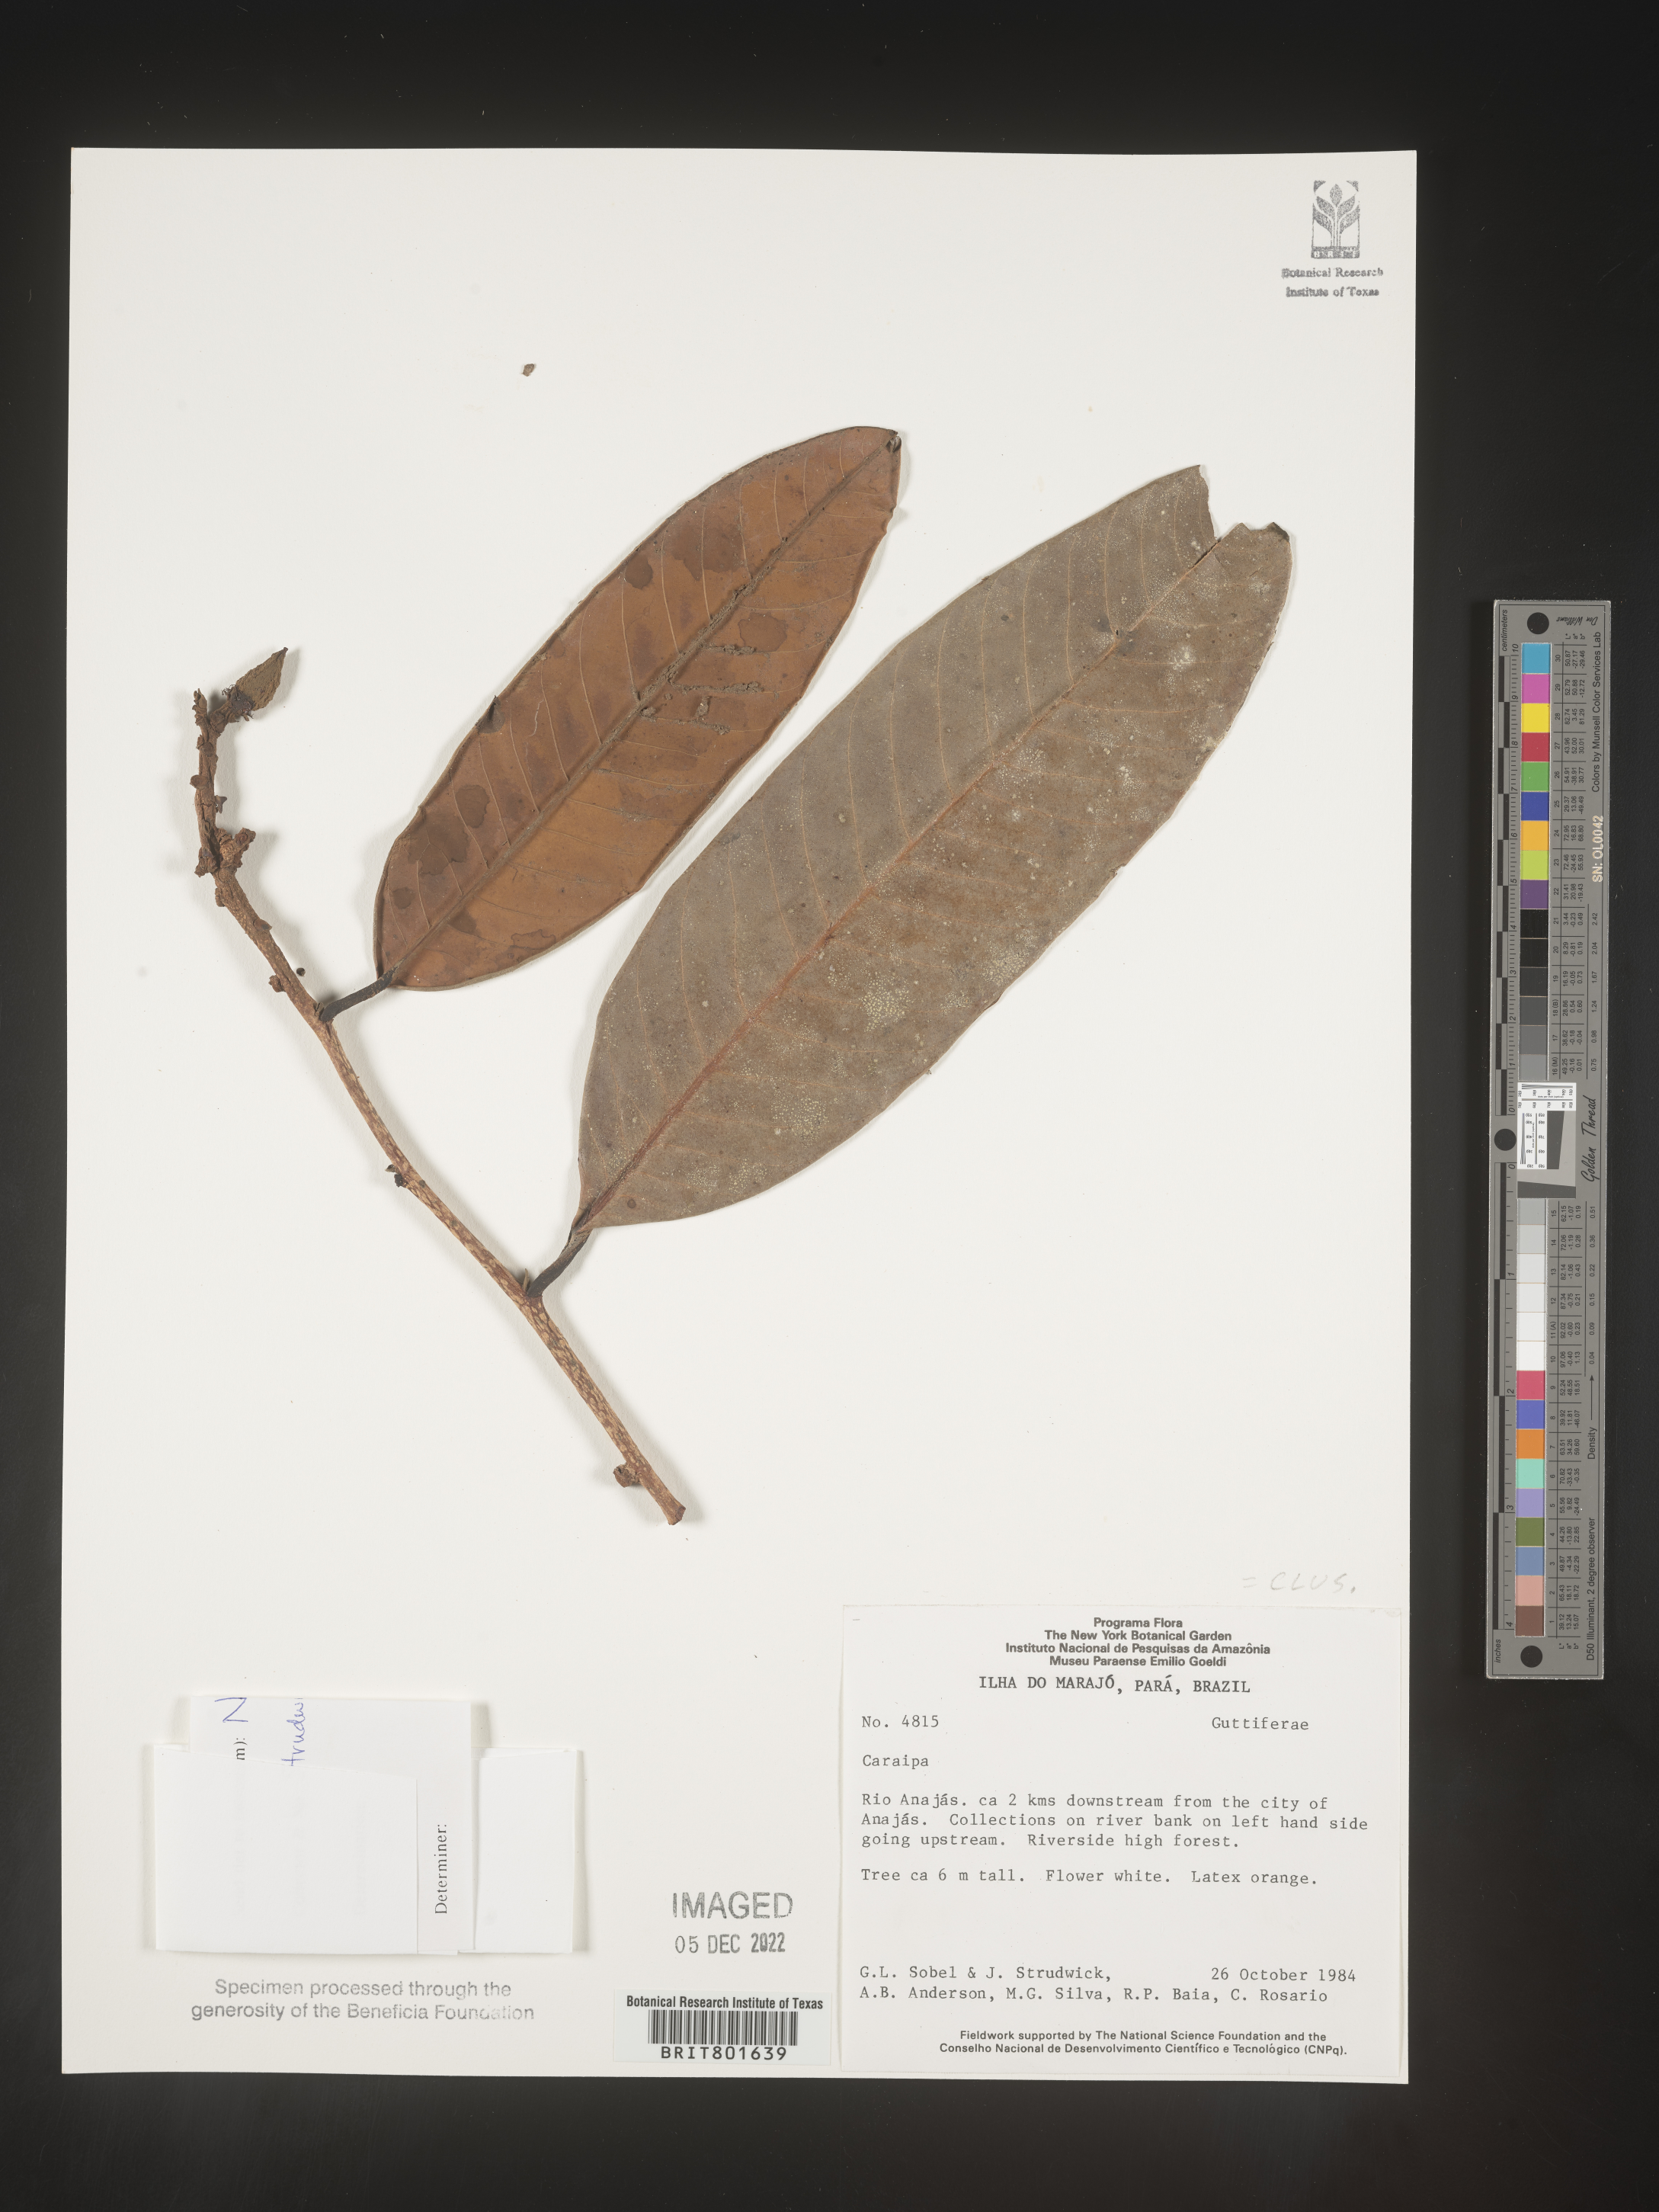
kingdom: Plantae
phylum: Tracheophyta
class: Magnoliopsida
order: Malpighiales
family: Calophyllaceae
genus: Caraipa
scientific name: Caraipa
